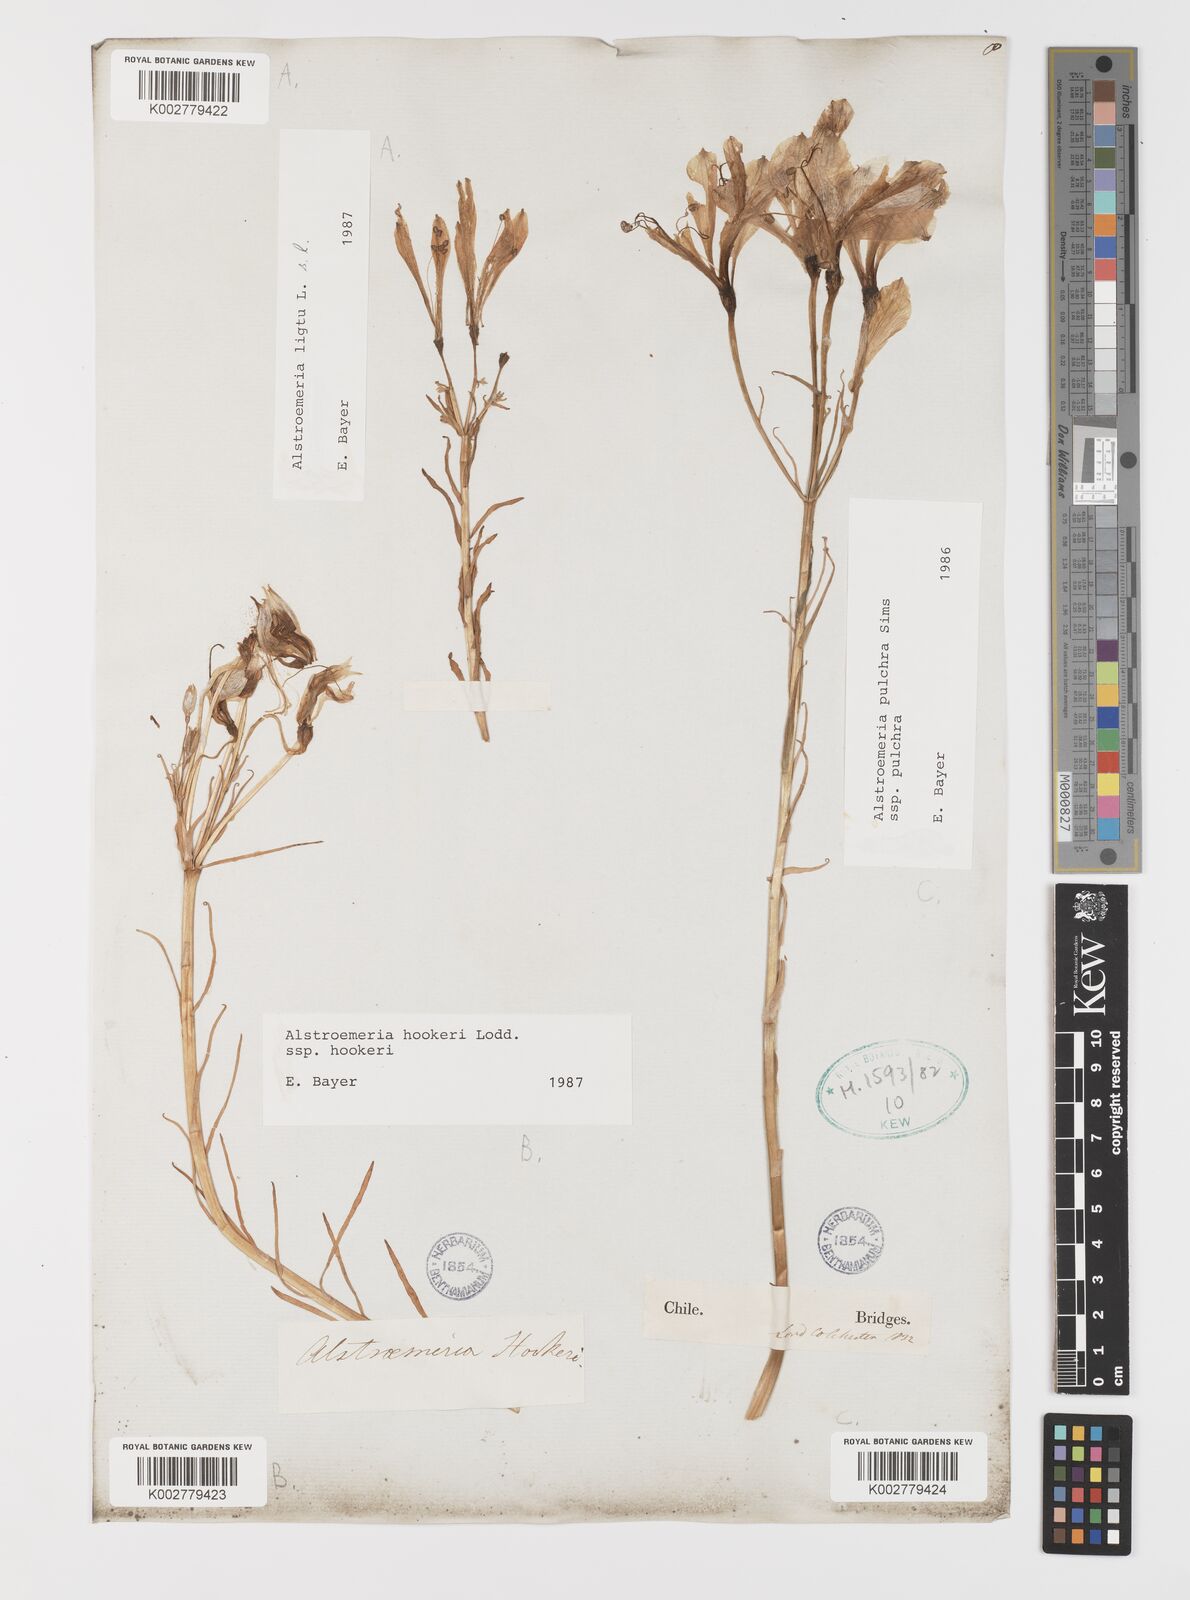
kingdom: Plantae
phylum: Tracheophyta
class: Liliopsida
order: Liliales
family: Alstroemeriaceae
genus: Alstroemeria
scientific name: Alstroemeria pulchra
